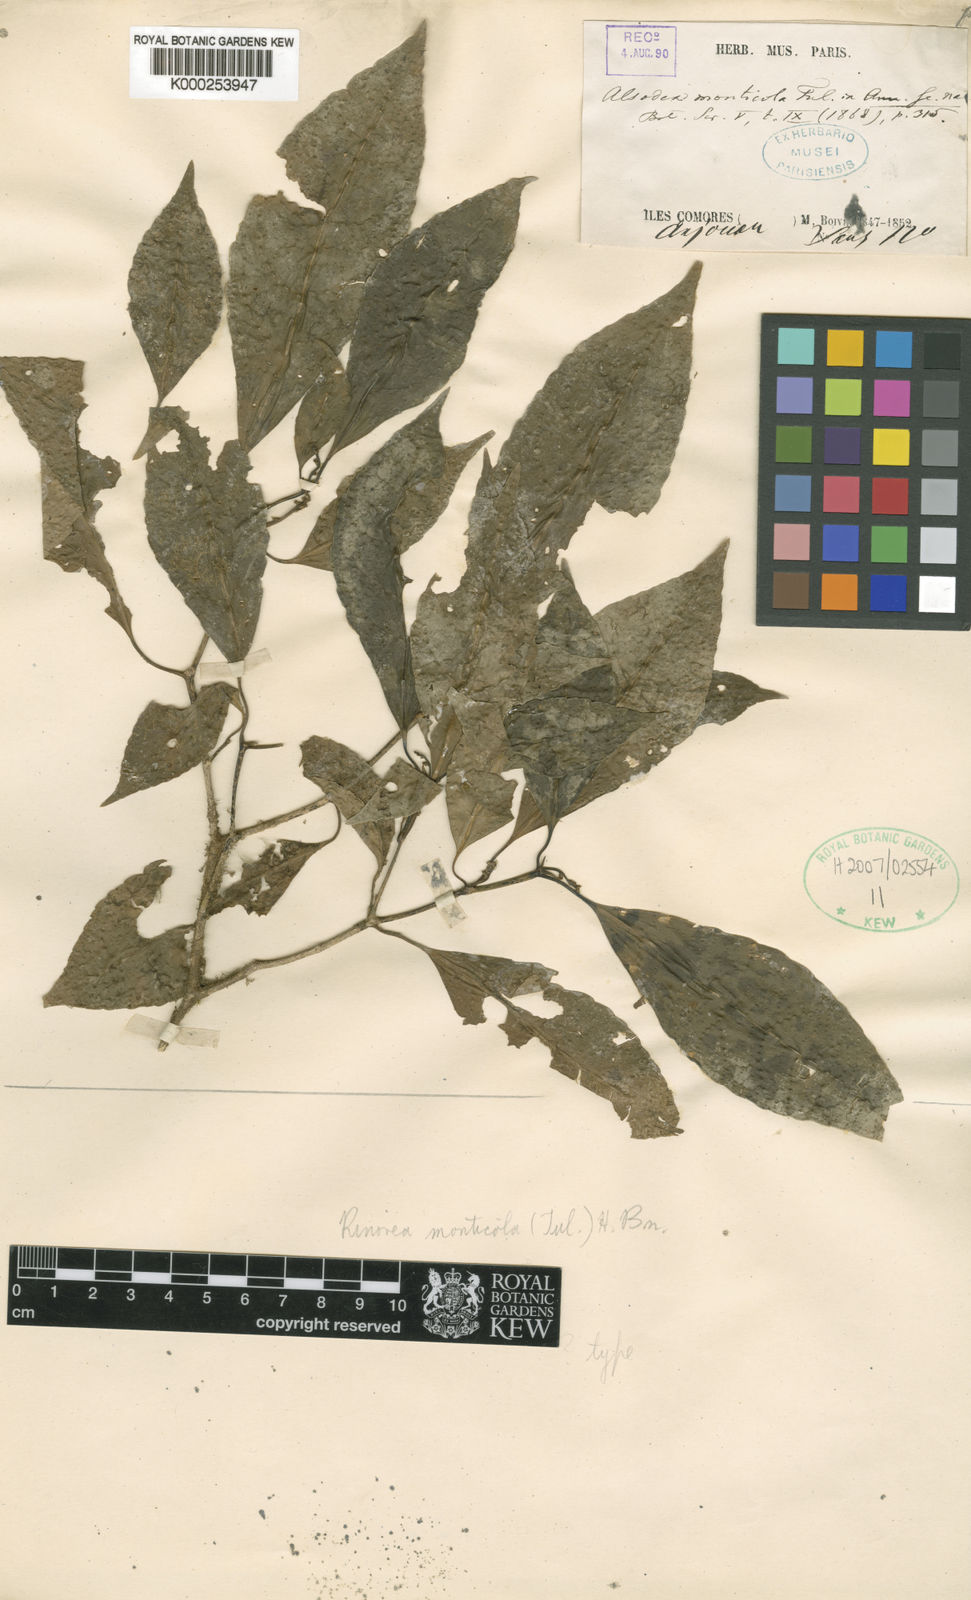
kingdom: Plantae
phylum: Tracheophyta
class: Magnoliopsida
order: Malpighiales
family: Violaceae
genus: Rinorea
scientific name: Rinorea monticola
